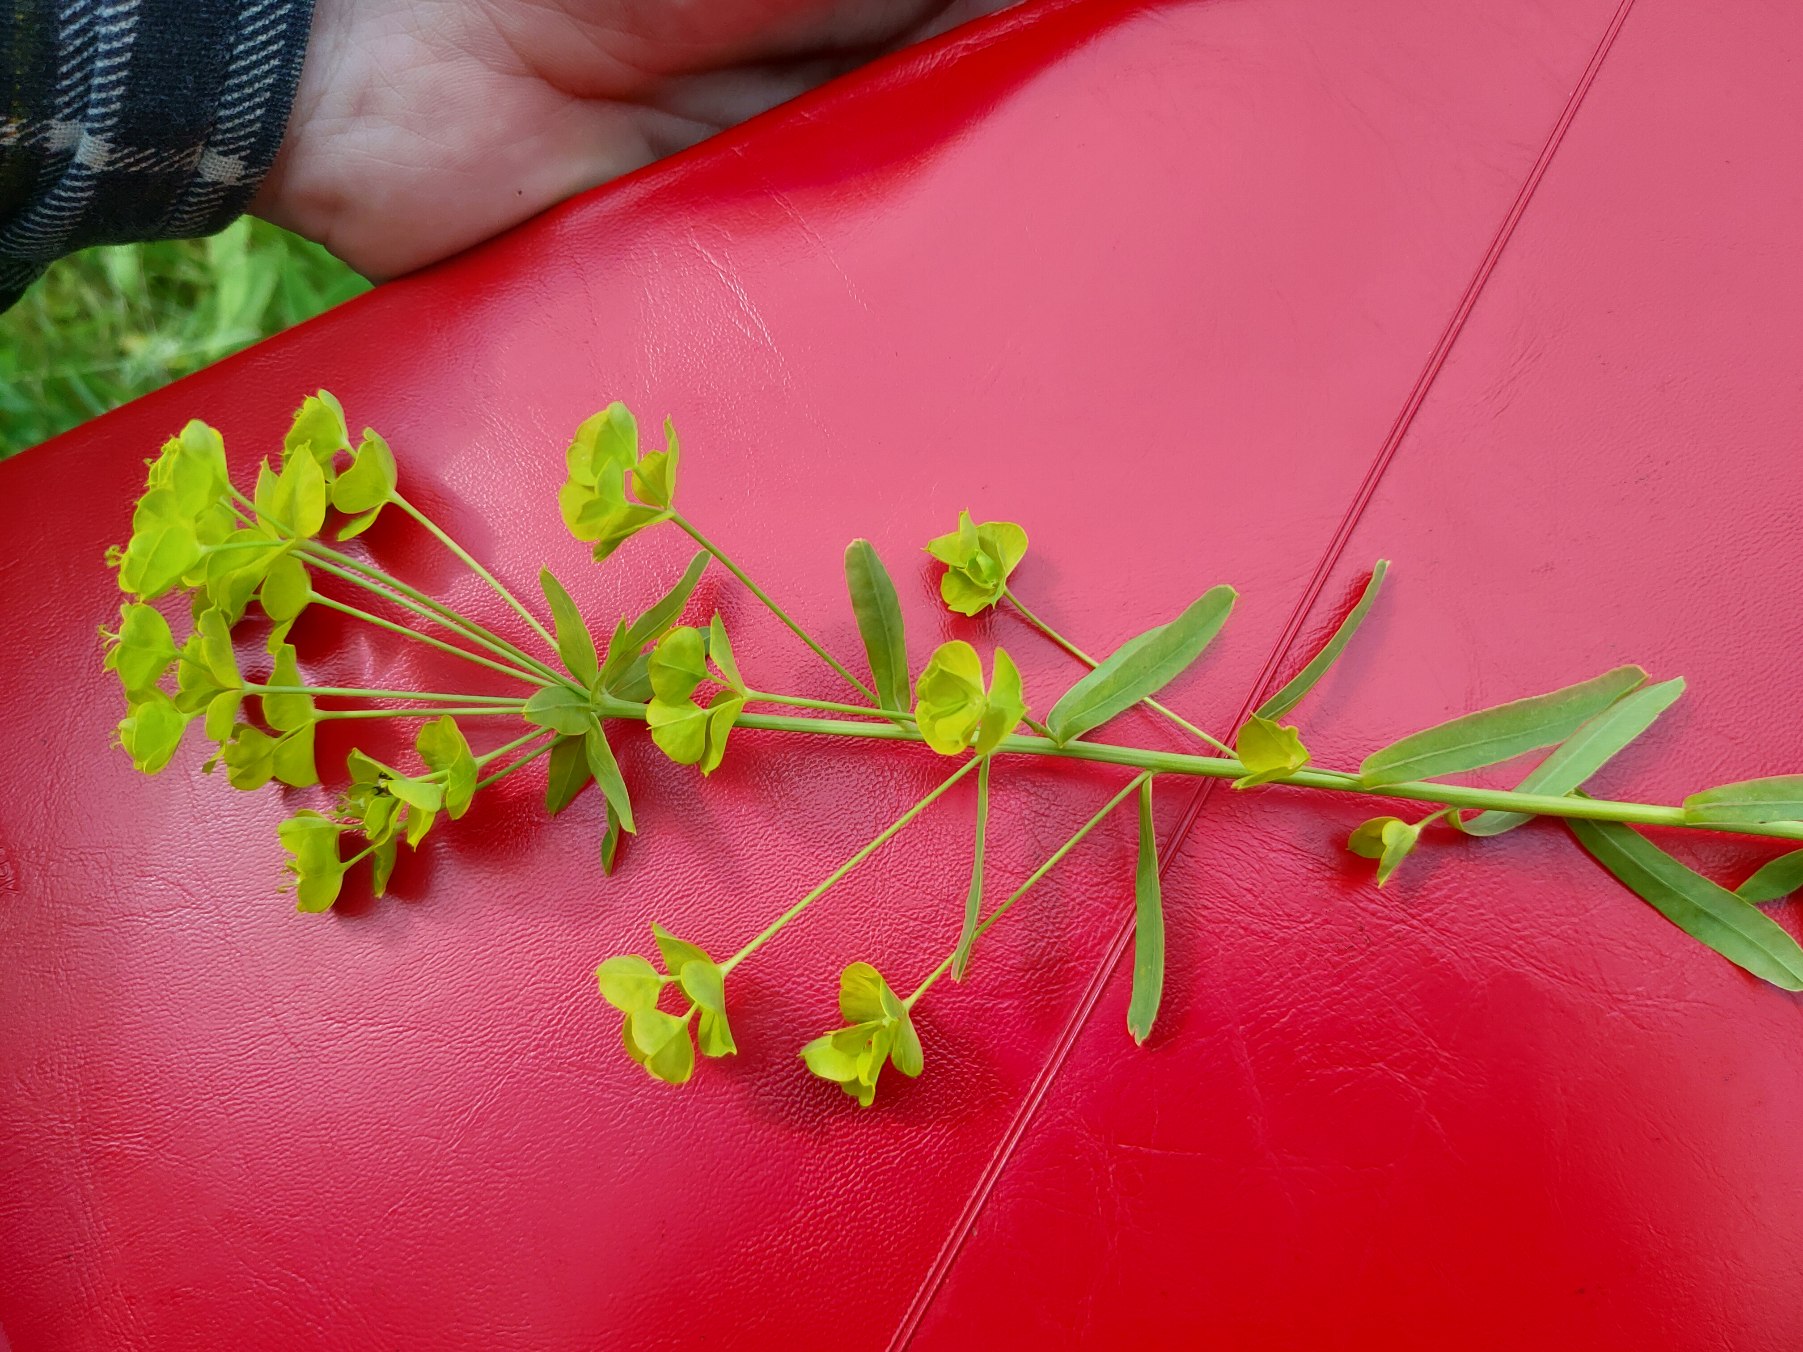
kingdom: Plantae
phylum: Tracheophyta
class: Magnoliopsida
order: Malpighiales
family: Euphorbiaceae
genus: Euphorbia
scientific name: Euphorbia esula
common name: Langbladet vortemælk
